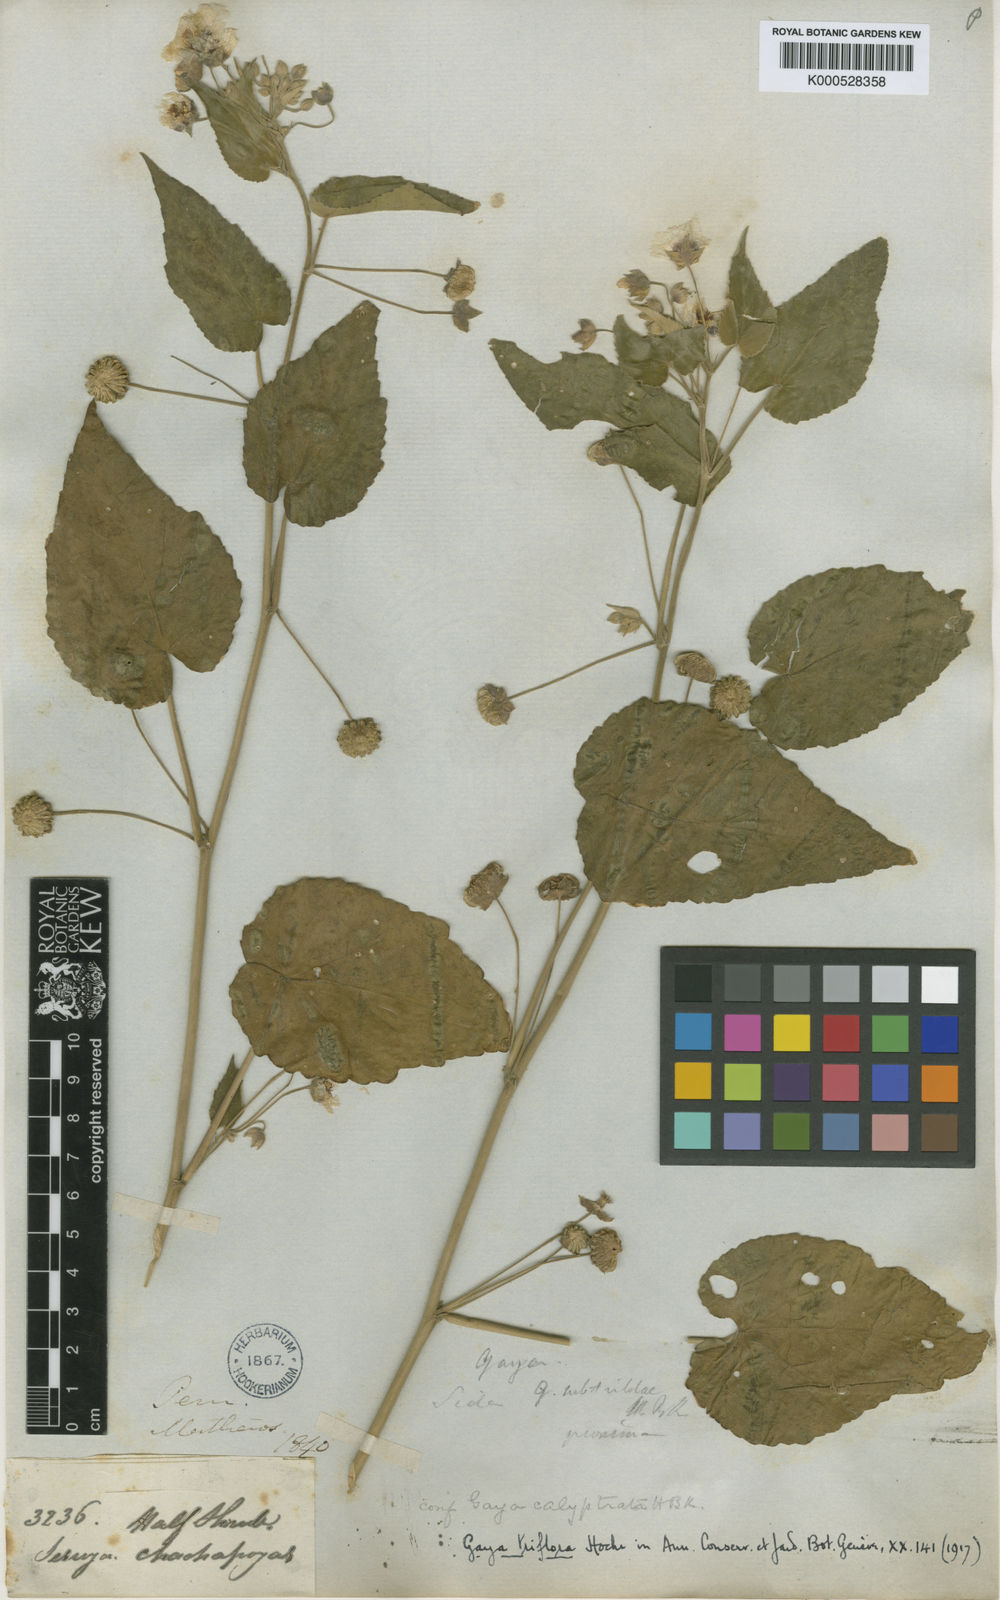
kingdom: Plantae
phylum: Tracheophyta
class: Magnoliopsida
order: Malvales
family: Malvaceae
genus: Gaya
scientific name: Gaya triflora
